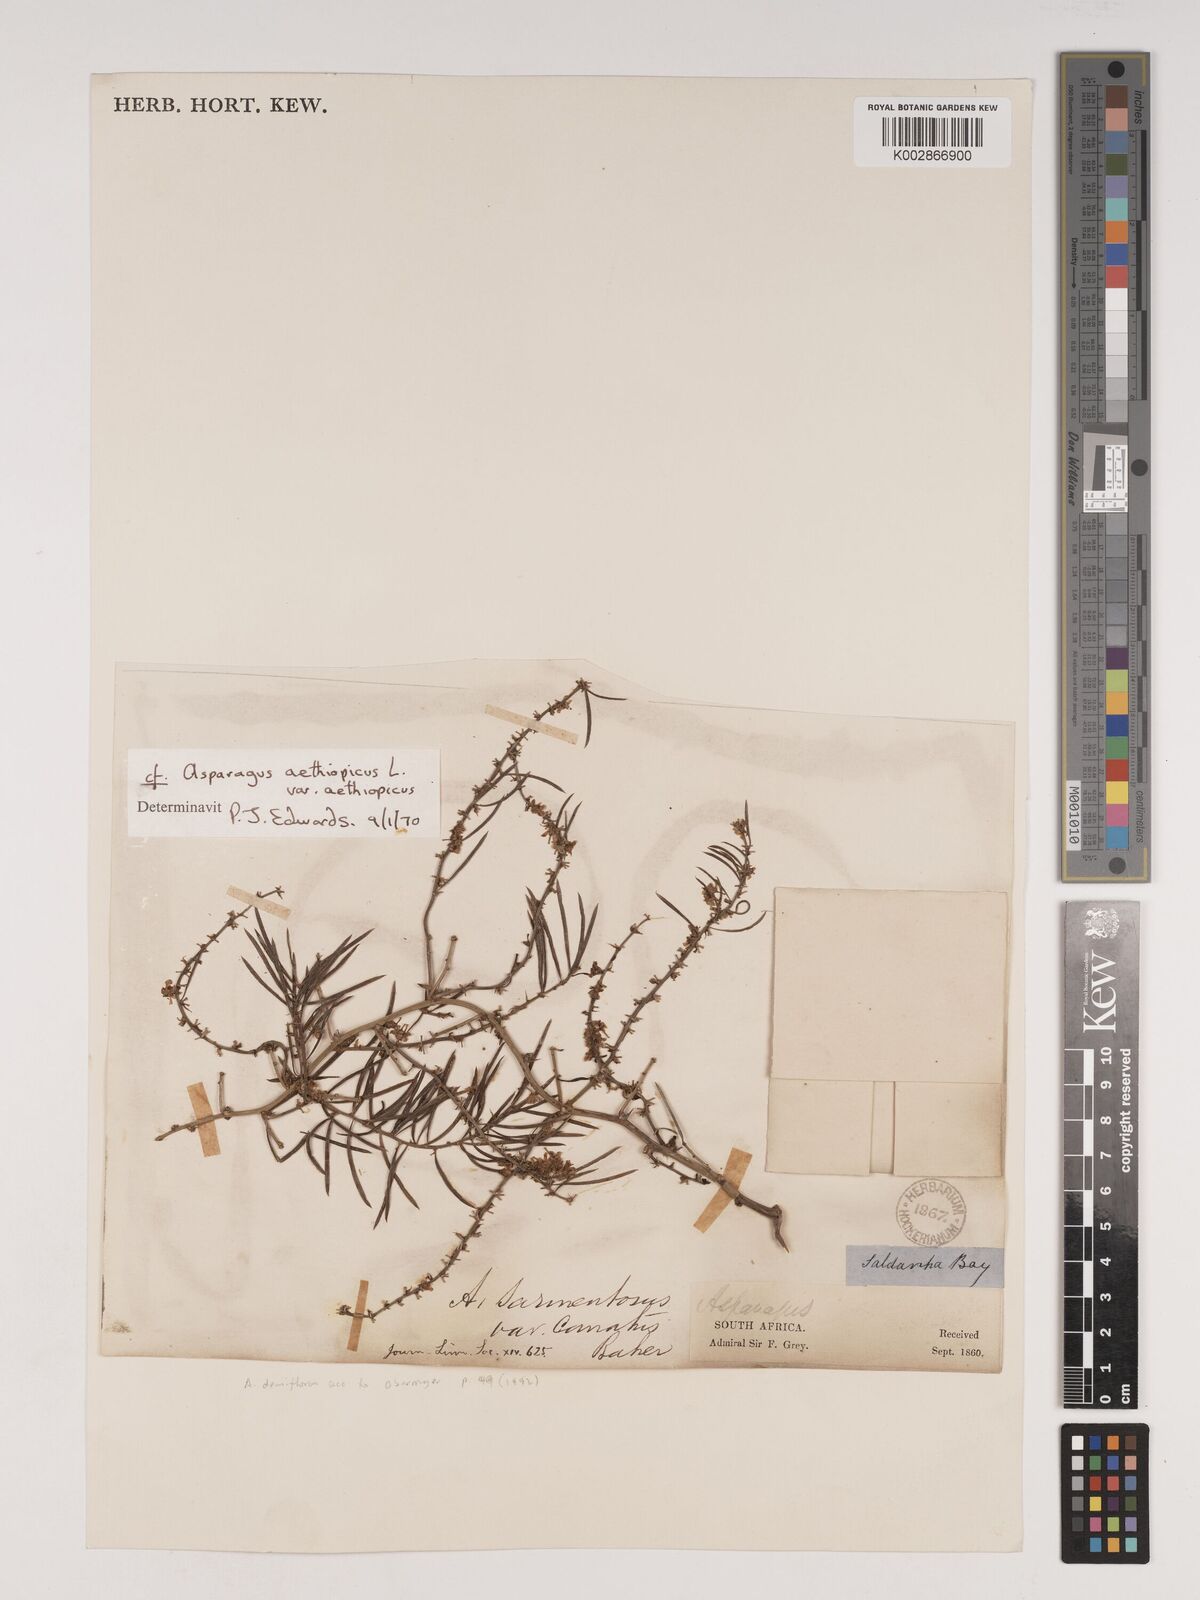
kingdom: Plantae
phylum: Tracheophyta
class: Liliopsida
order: Asparagales
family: Asparagaceae
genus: Asparagus
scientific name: Asparagus aethiopicus
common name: Sprenger's asparagus fern
